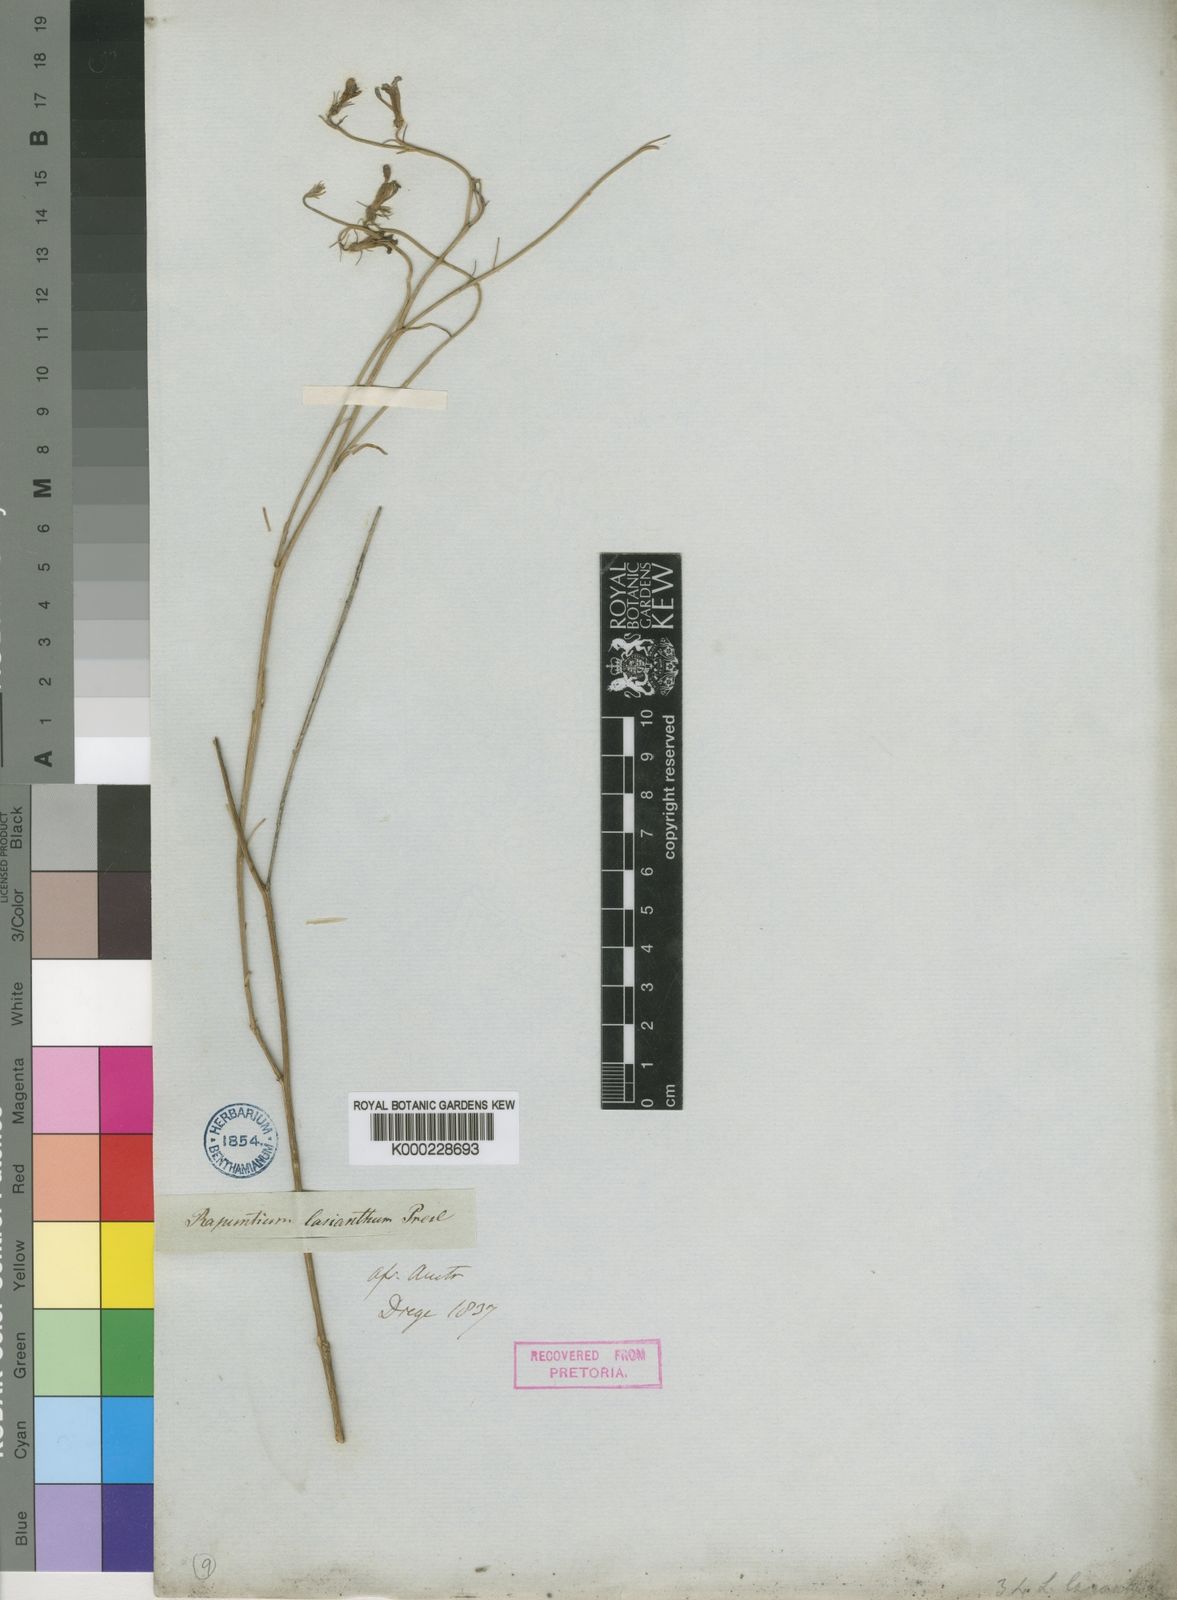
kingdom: Plantae
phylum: Tracheophyta
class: Magnoliopsida
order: Asterales
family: Campanulaceae
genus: Lobelia
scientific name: Lobelia linearis
